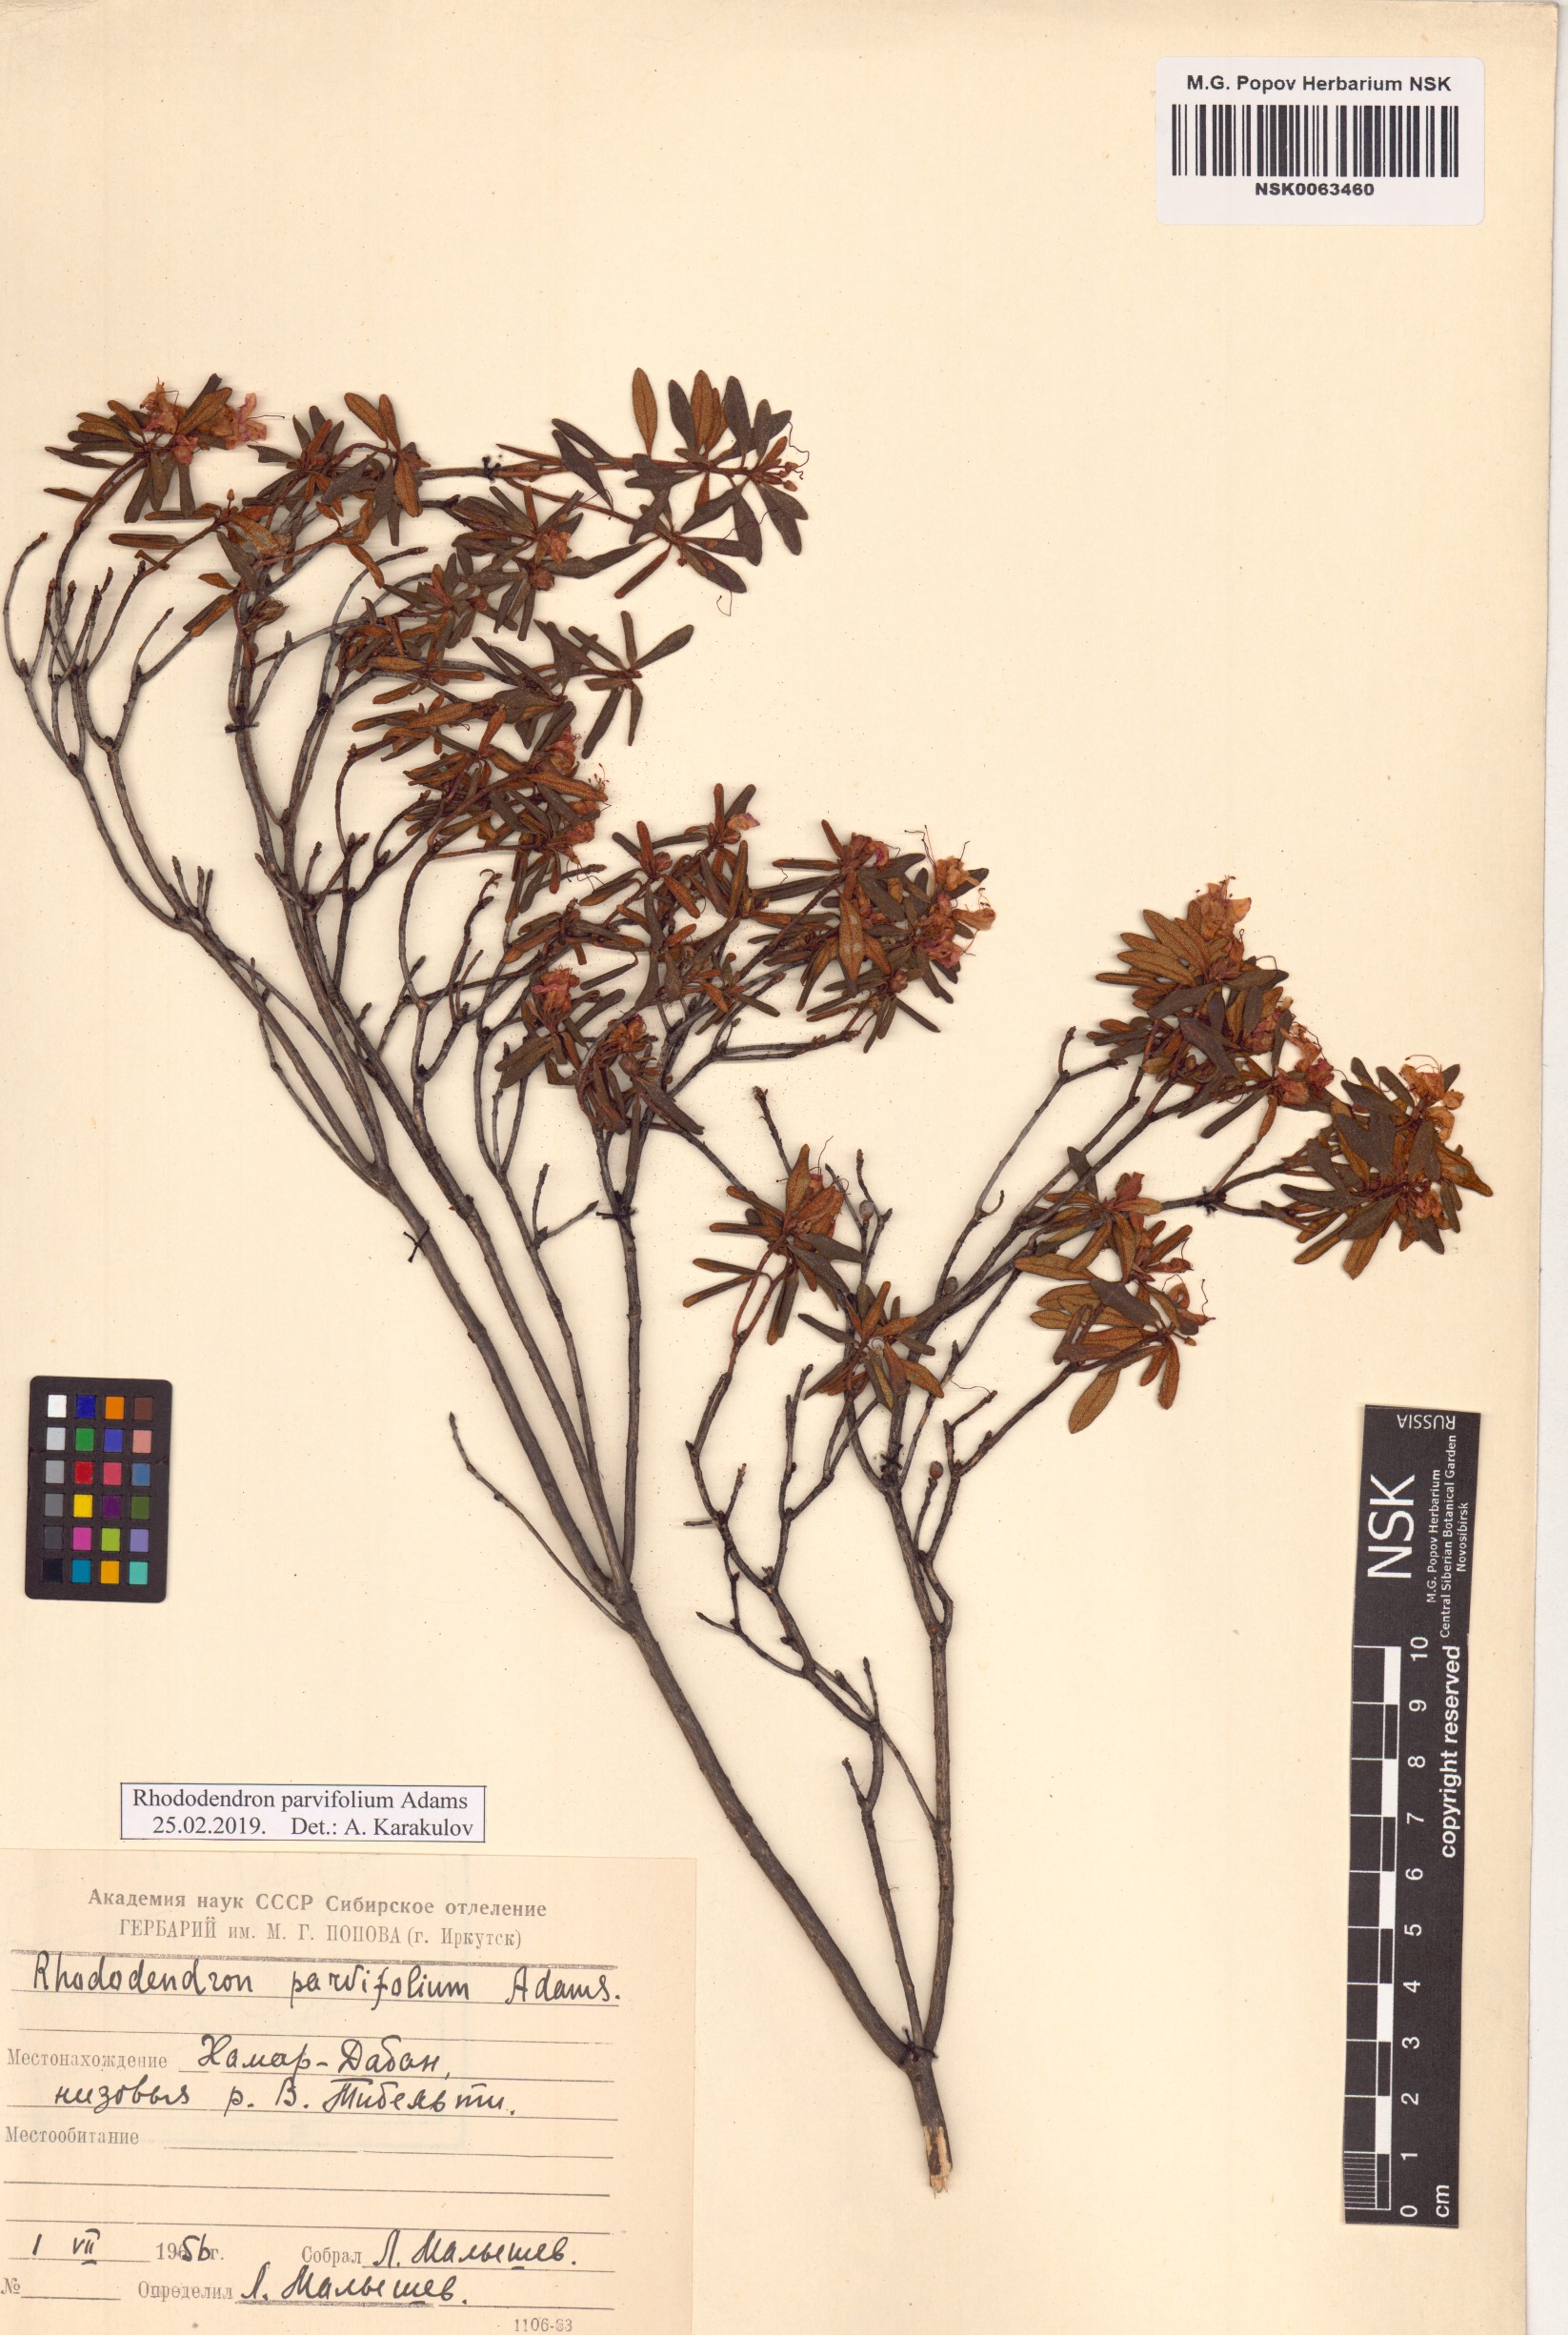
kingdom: Plantae
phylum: Tracheophyta
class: Magnoliopsida
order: Ericales
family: Ericaceae
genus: Rhododendron
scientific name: Rhododendron parvifolium
